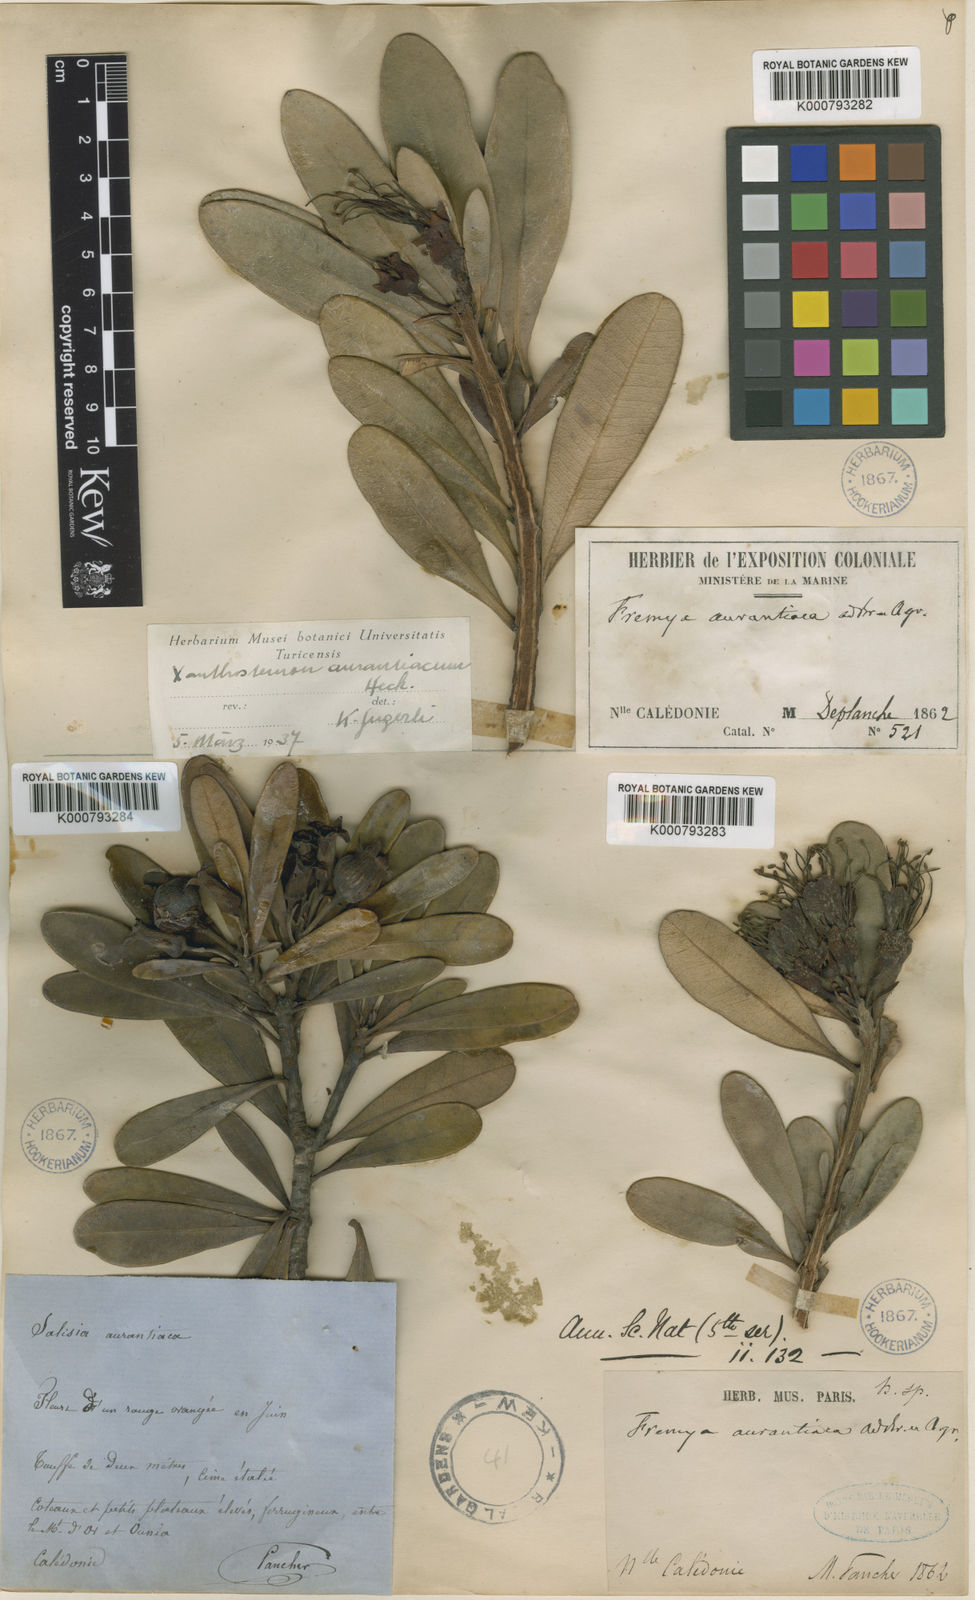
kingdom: Plantae
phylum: Tracheophyta
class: Magnoliopsida
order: Myrtales
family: Myrtaceae
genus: Xanthostemon
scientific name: Xanthostemon aurantiacus
